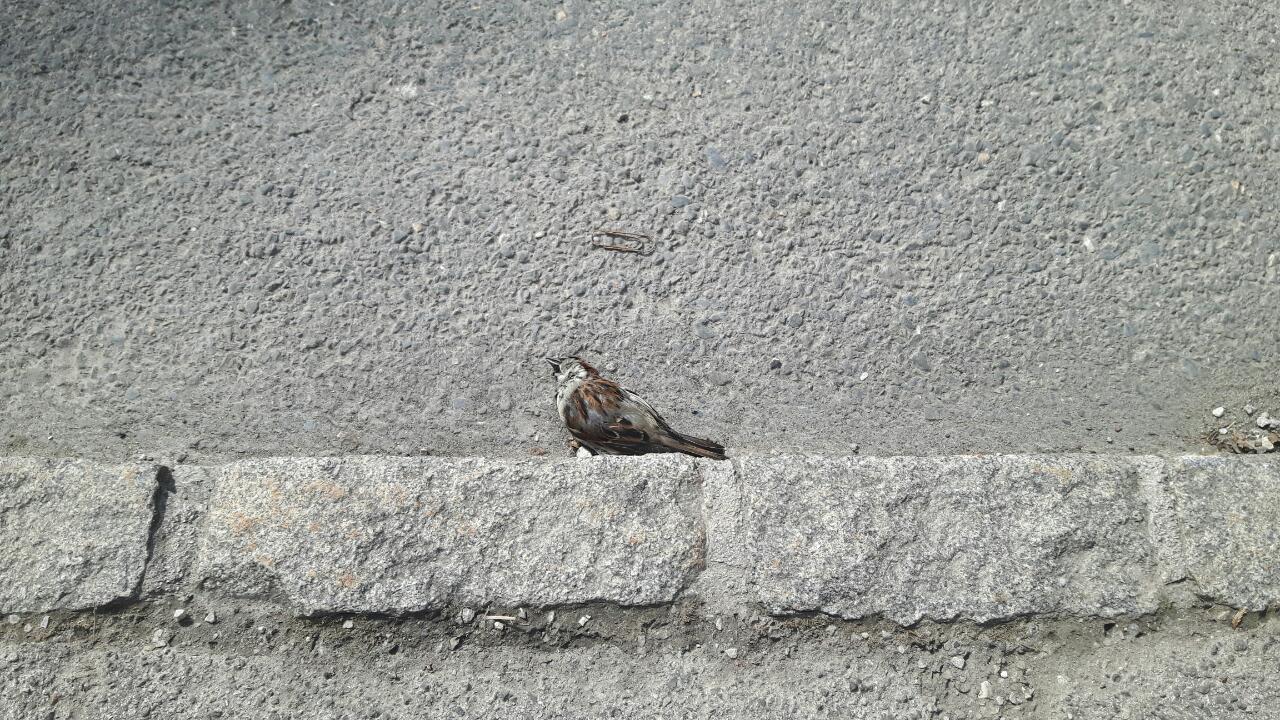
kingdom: Animalia
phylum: Chordata
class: Aves
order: Passeriformes
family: Passeridae
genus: Passer
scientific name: Passer domesticus
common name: House sparrow
